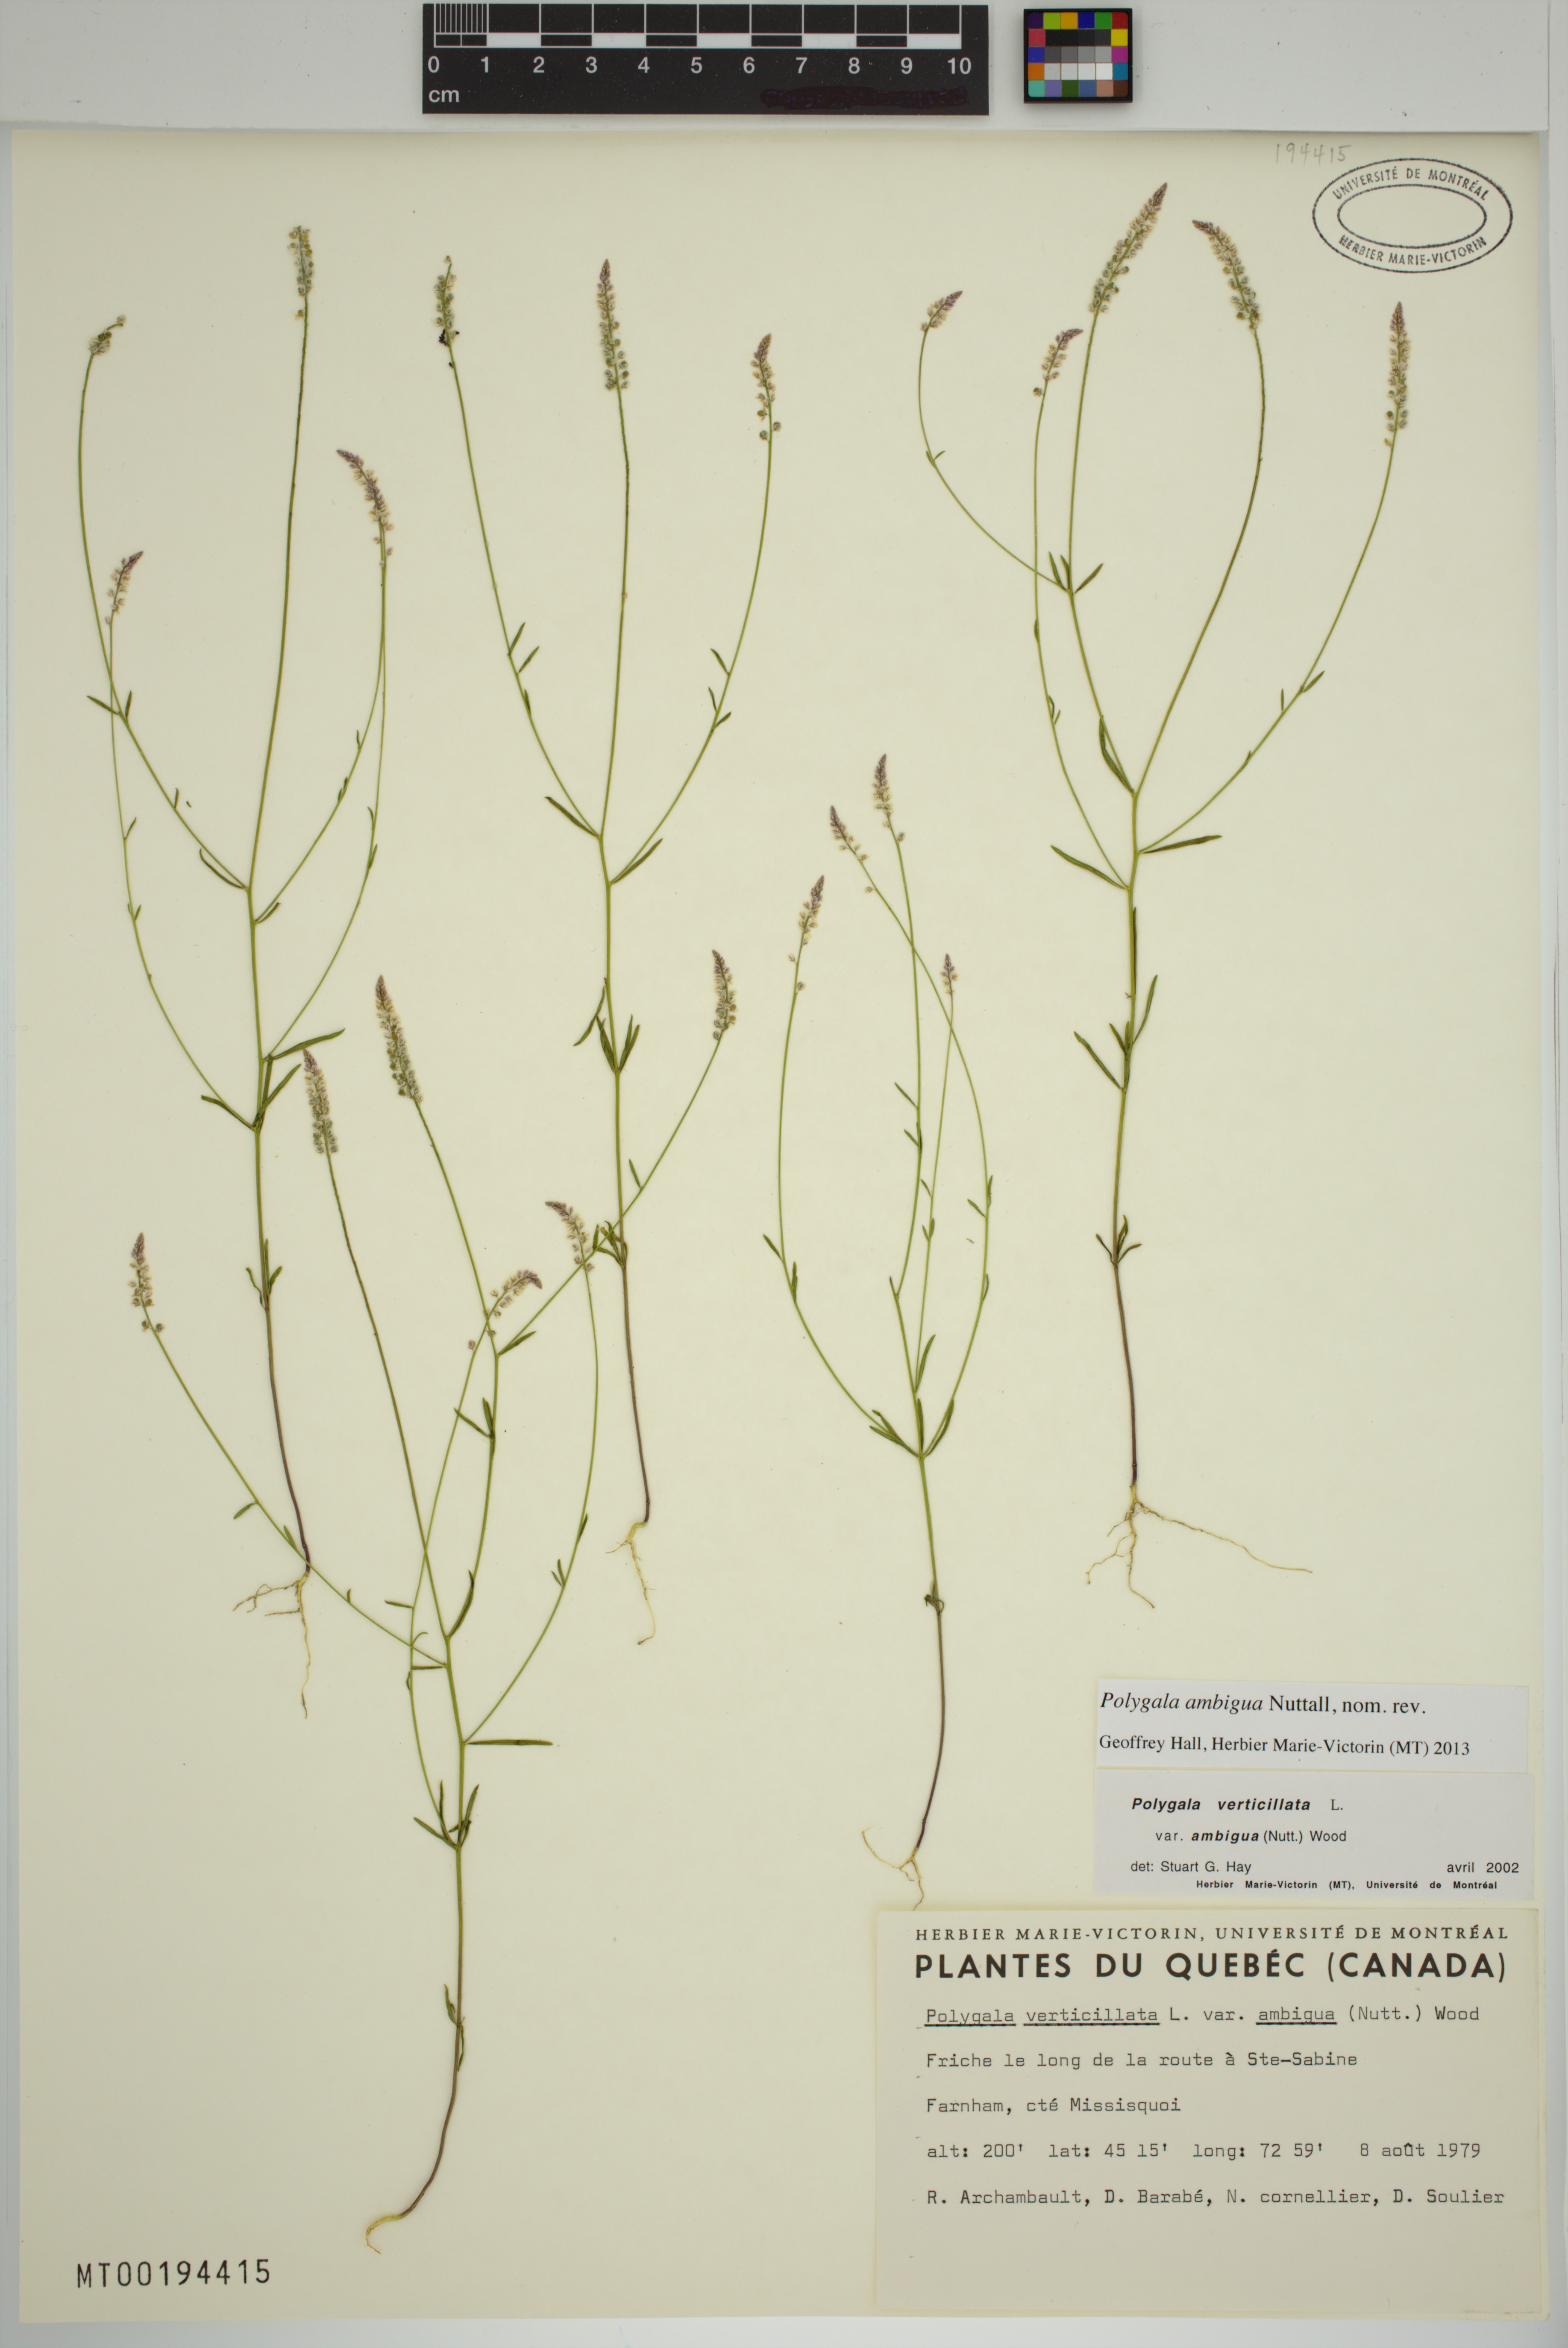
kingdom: Plantae
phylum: Tracheophyta
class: Magnoliopsida
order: Fabales
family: Polygalaceae
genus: Polygala
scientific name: Polygala ambigua
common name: Alternate milkwort
